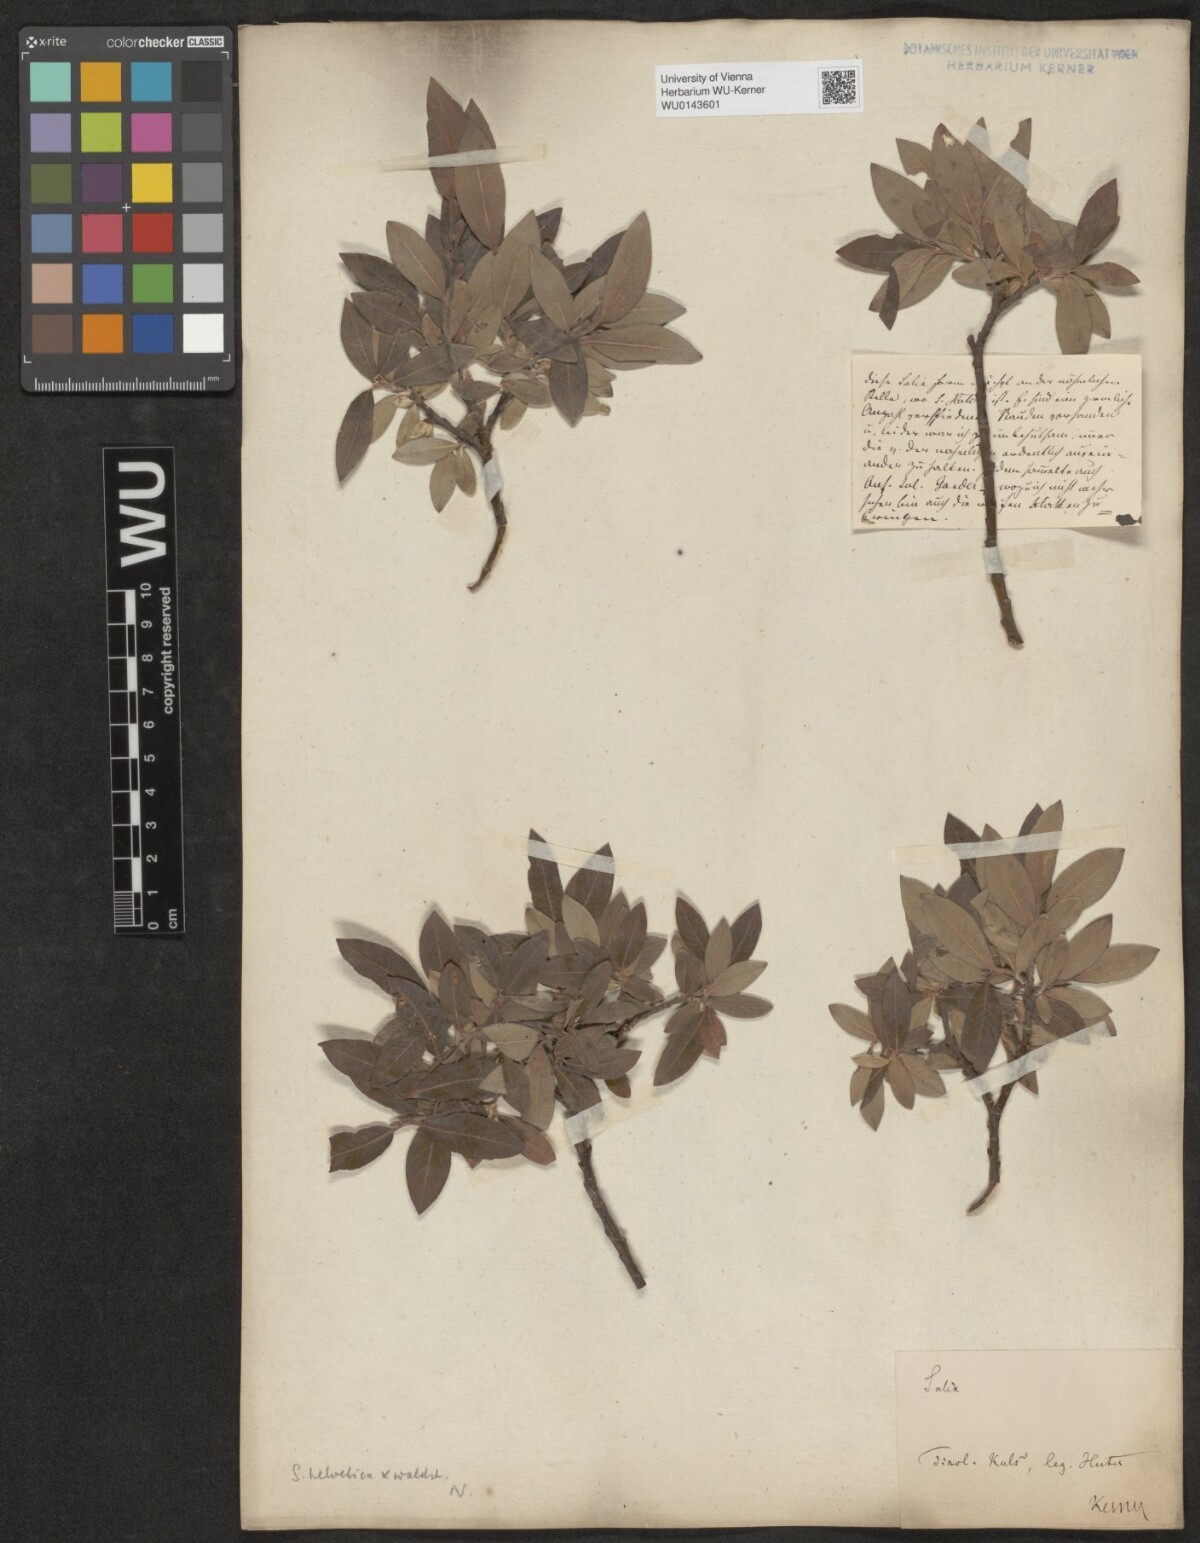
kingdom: Plantae
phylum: Tracheophyta
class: Magnoliopsida
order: Malpighiales
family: Salicaceae
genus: Salix
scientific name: Salix waldsteiniana
